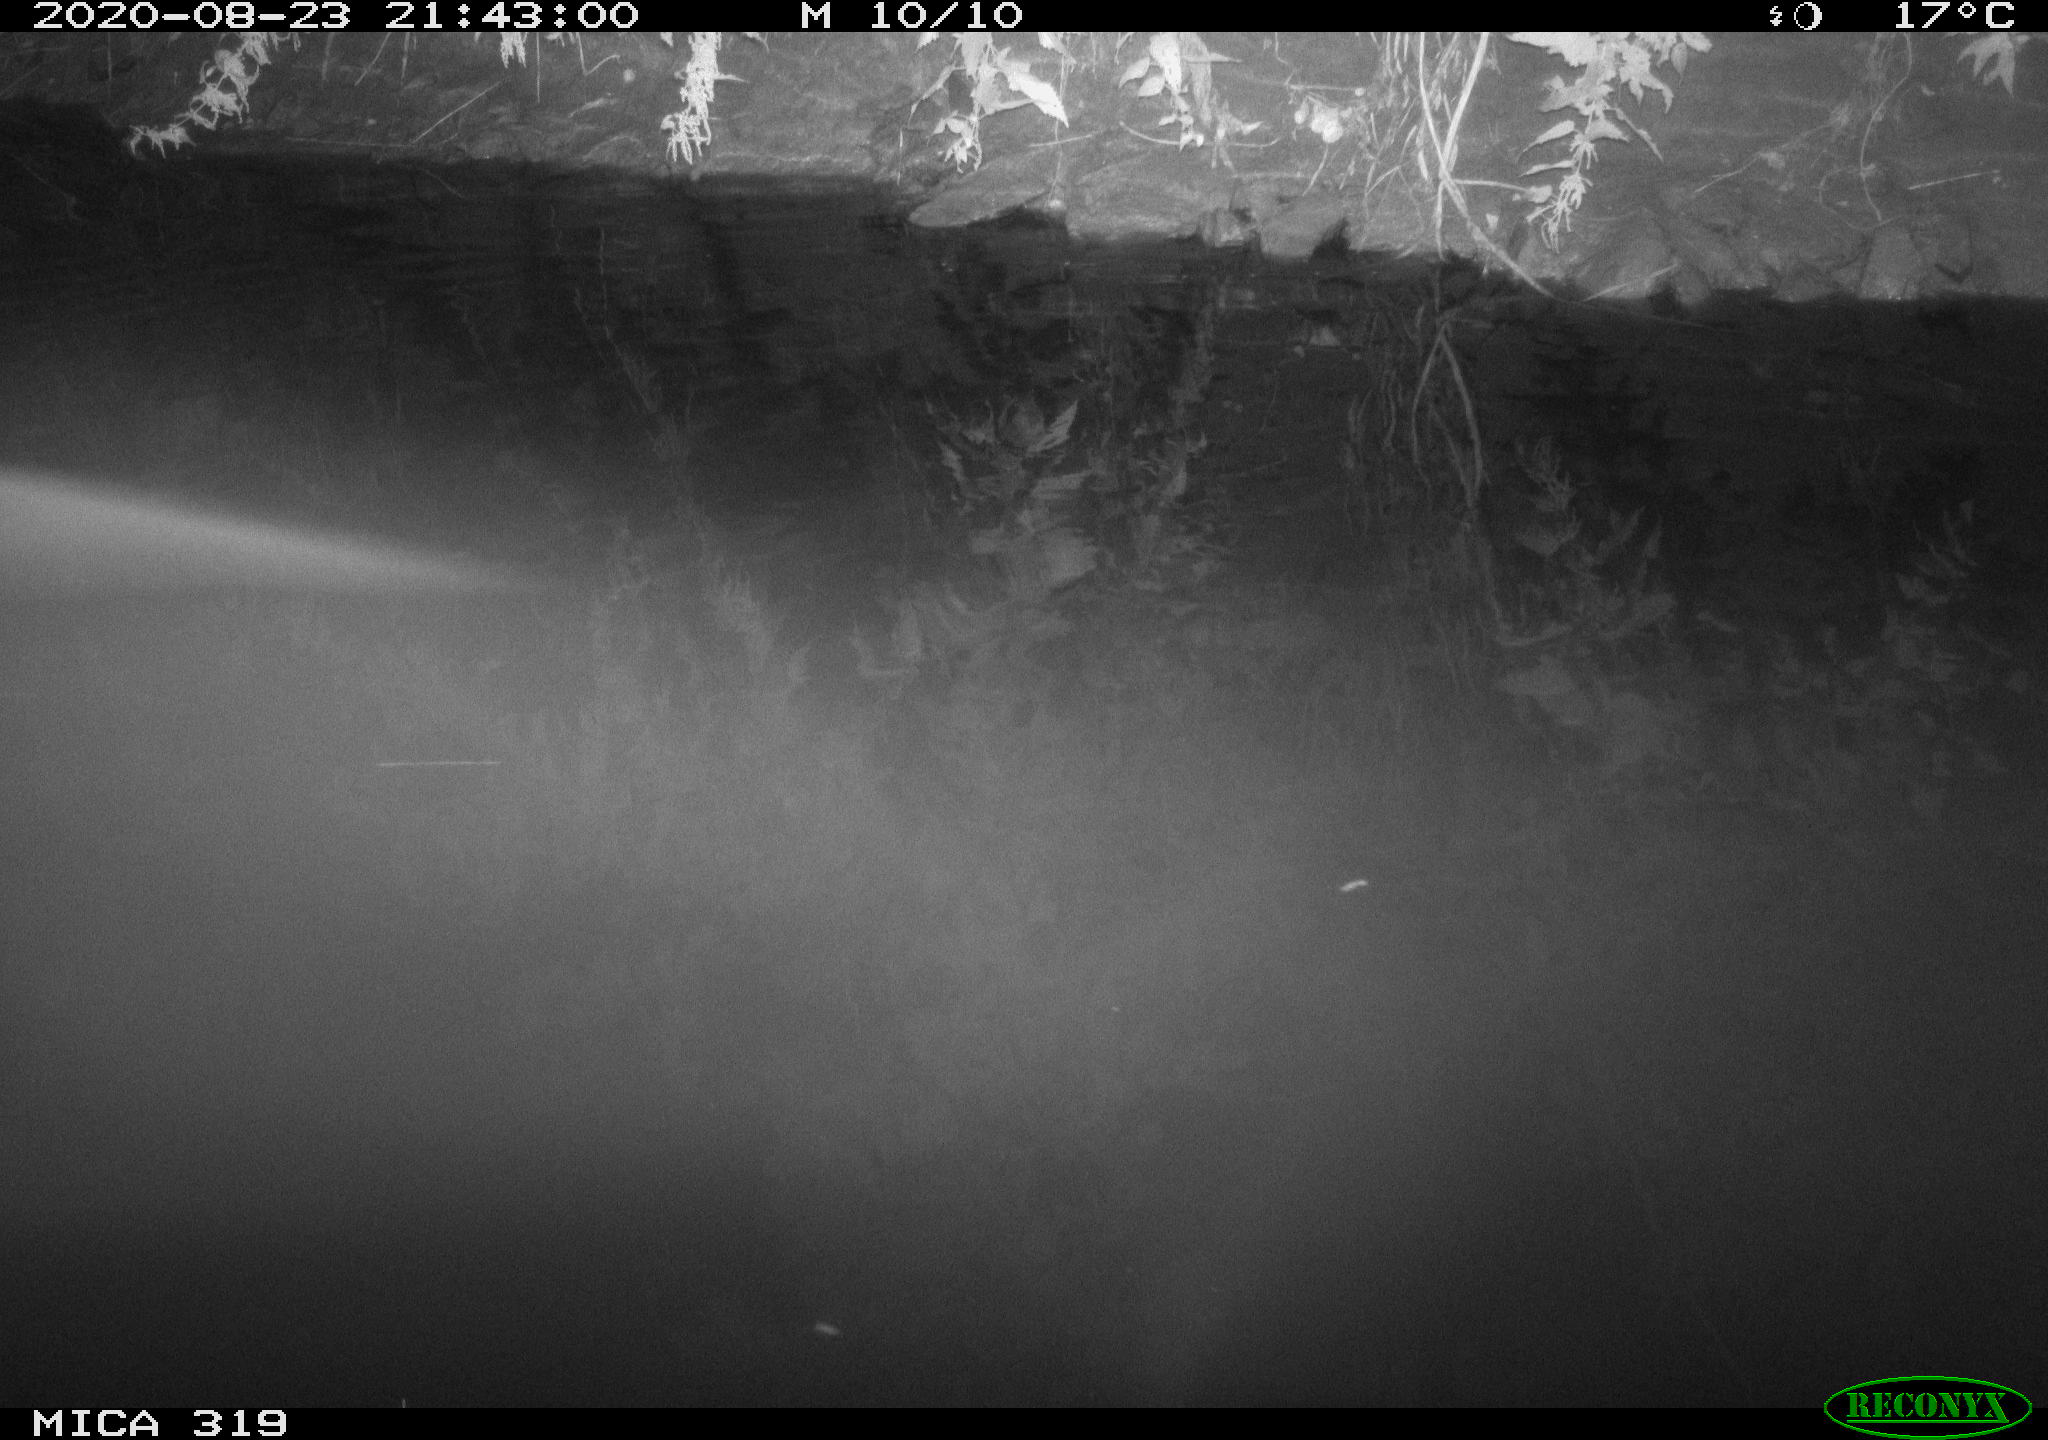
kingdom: Animalia
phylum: Chordata
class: Aves
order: Anseriformes
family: Anatidae
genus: Anas
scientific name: Anas platyrhynchos
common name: Mallard
